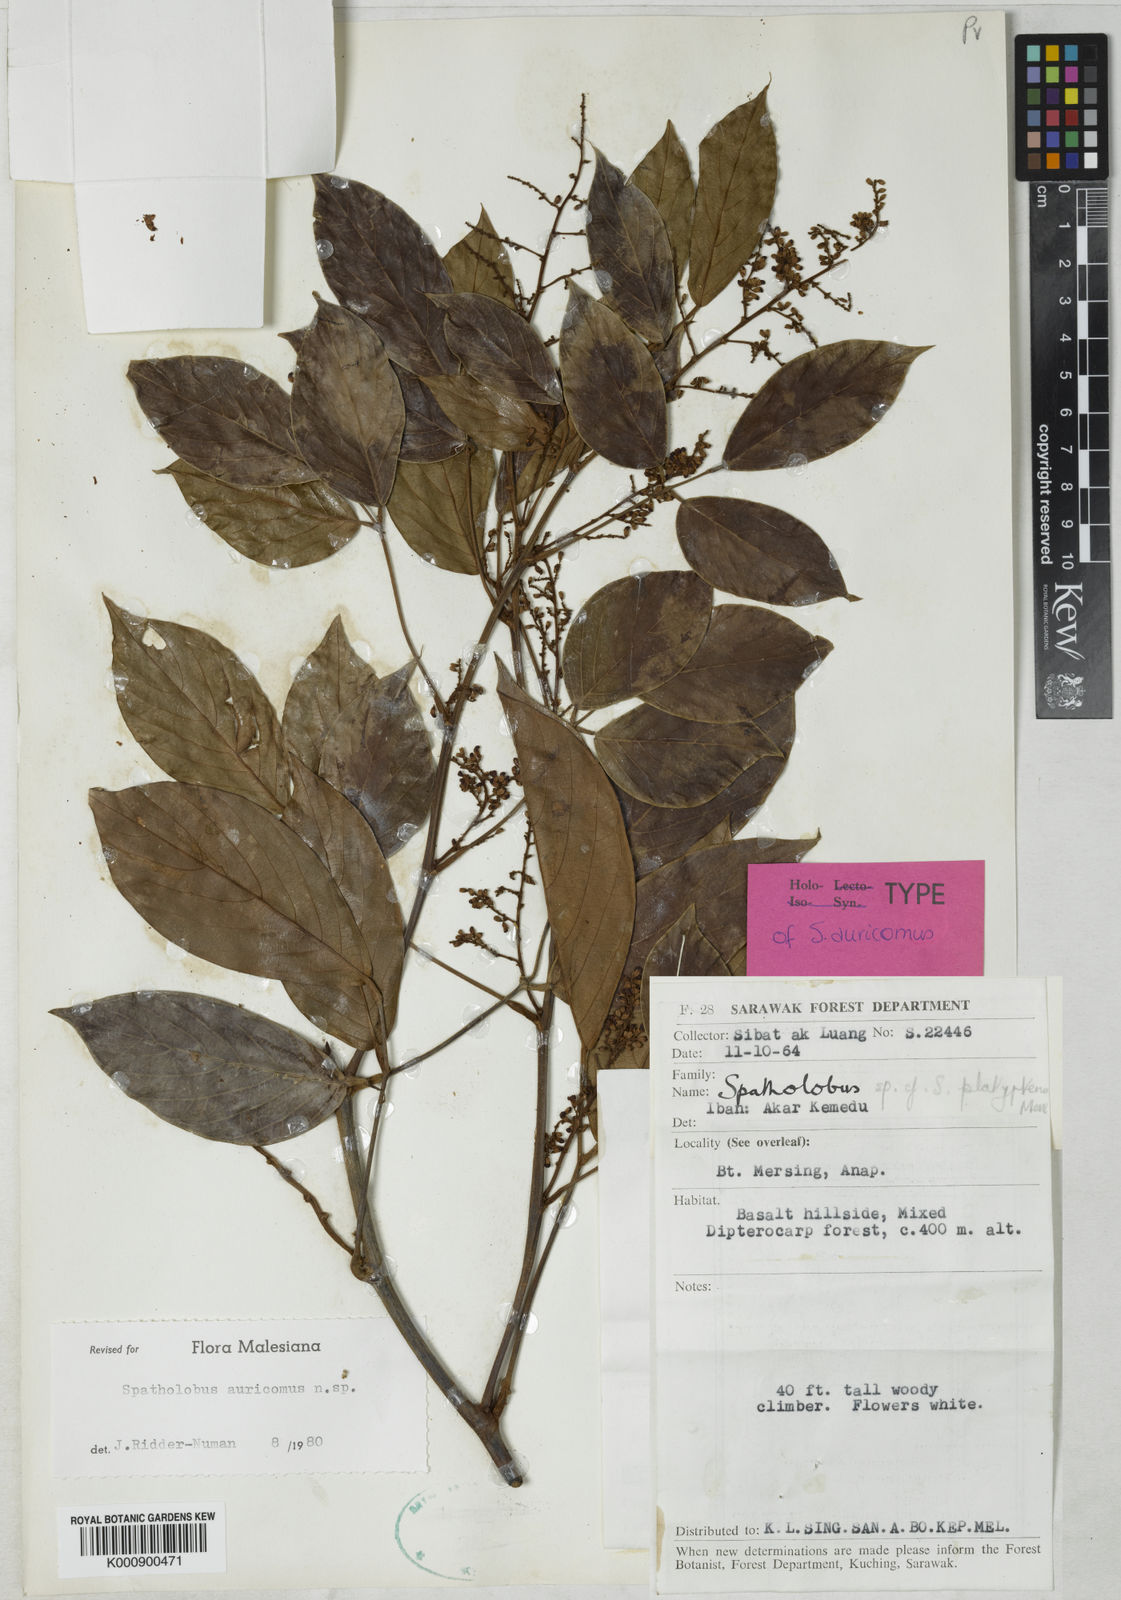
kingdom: Plantae
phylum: Tracheophyta
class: Magnoliopsida
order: Fabales
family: Fabaceae
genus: Spatholobus
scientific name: Spatholobus auricomus
